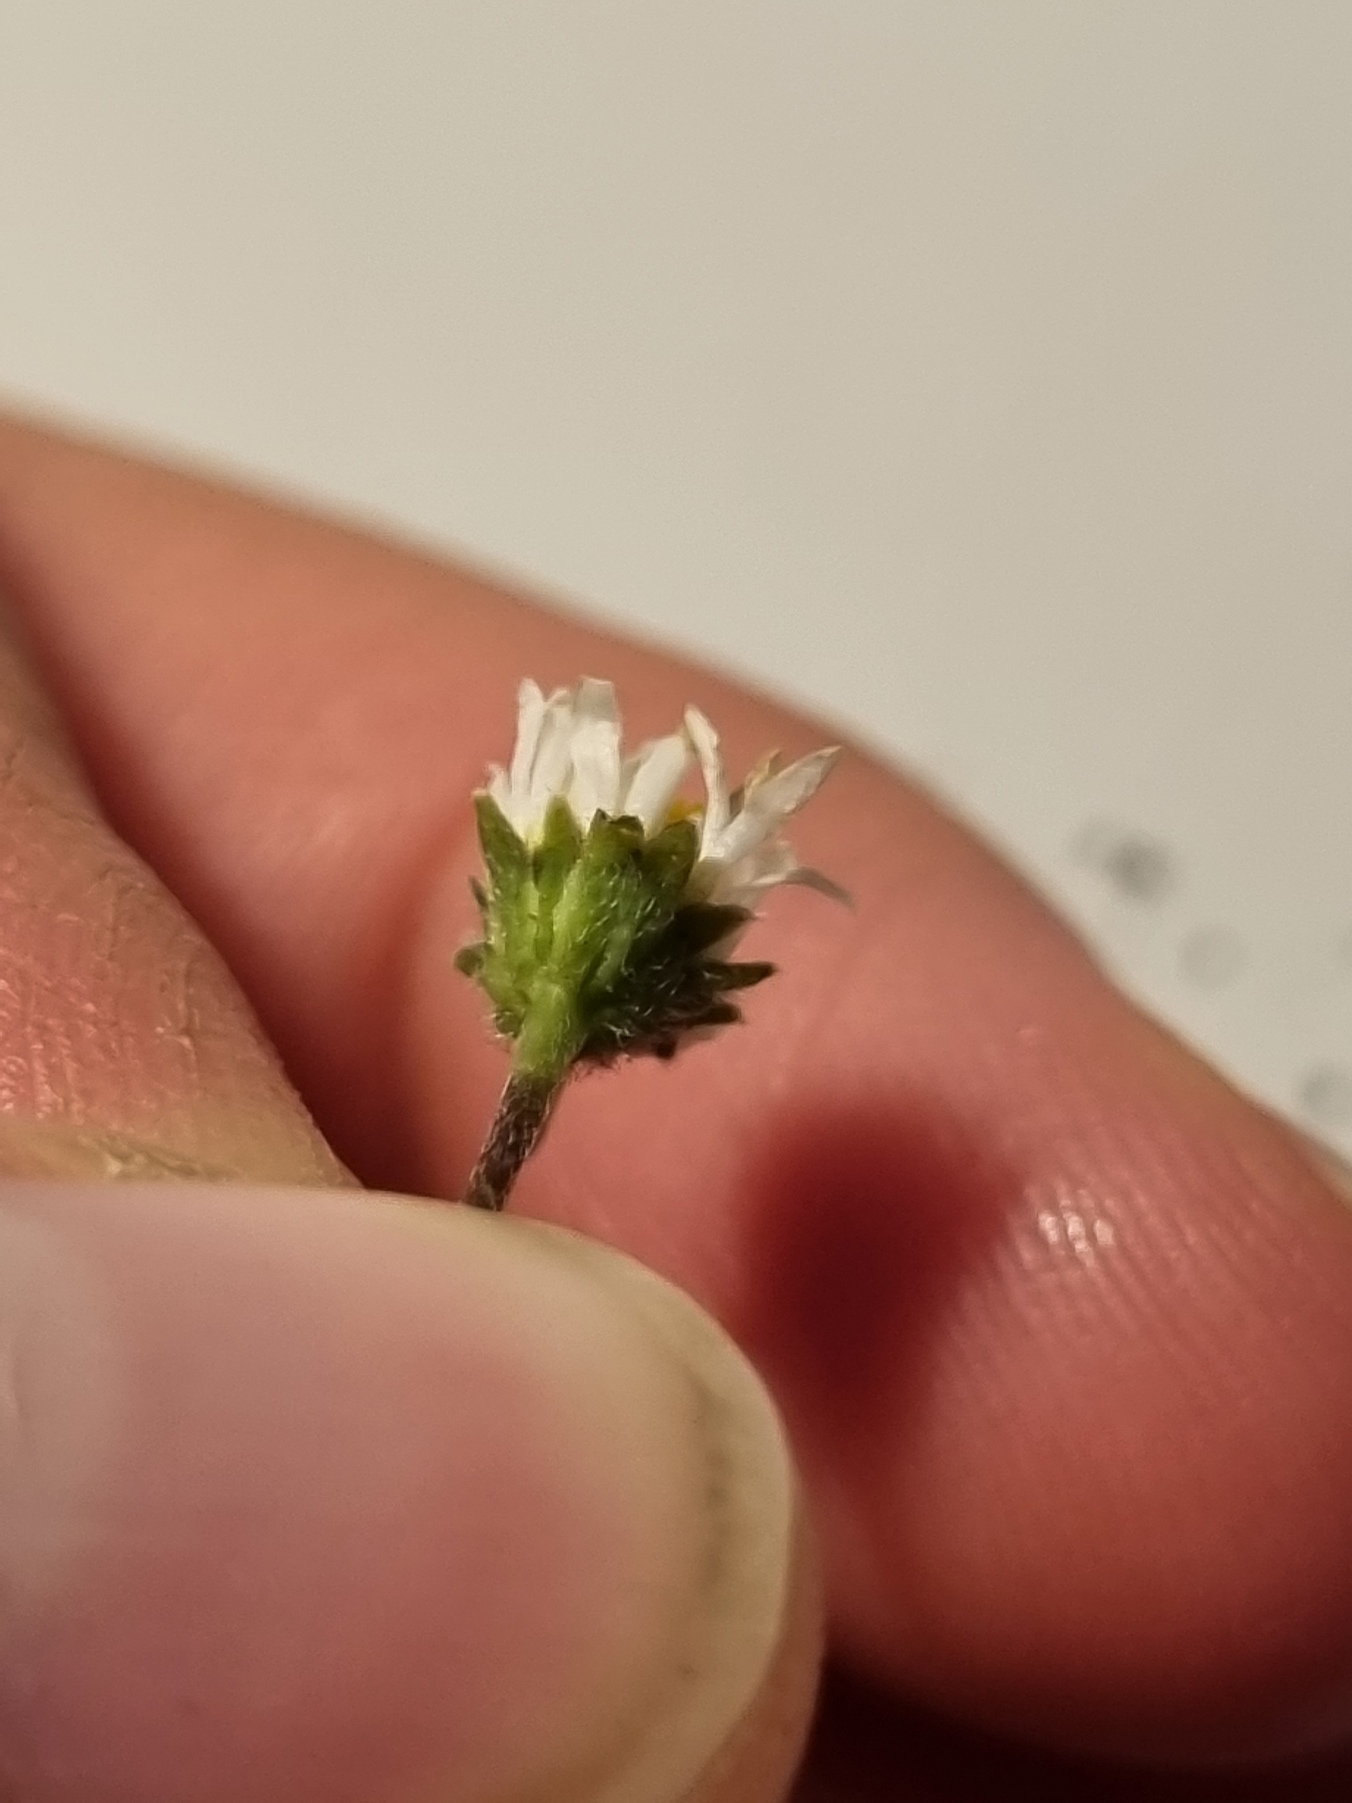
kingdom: Plantae
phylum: Tracheophyta
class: Magnoliopsida
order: Asterales
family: Asteraceae
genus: Bellis
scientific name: Bellis perennis
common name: Tusindfryd
